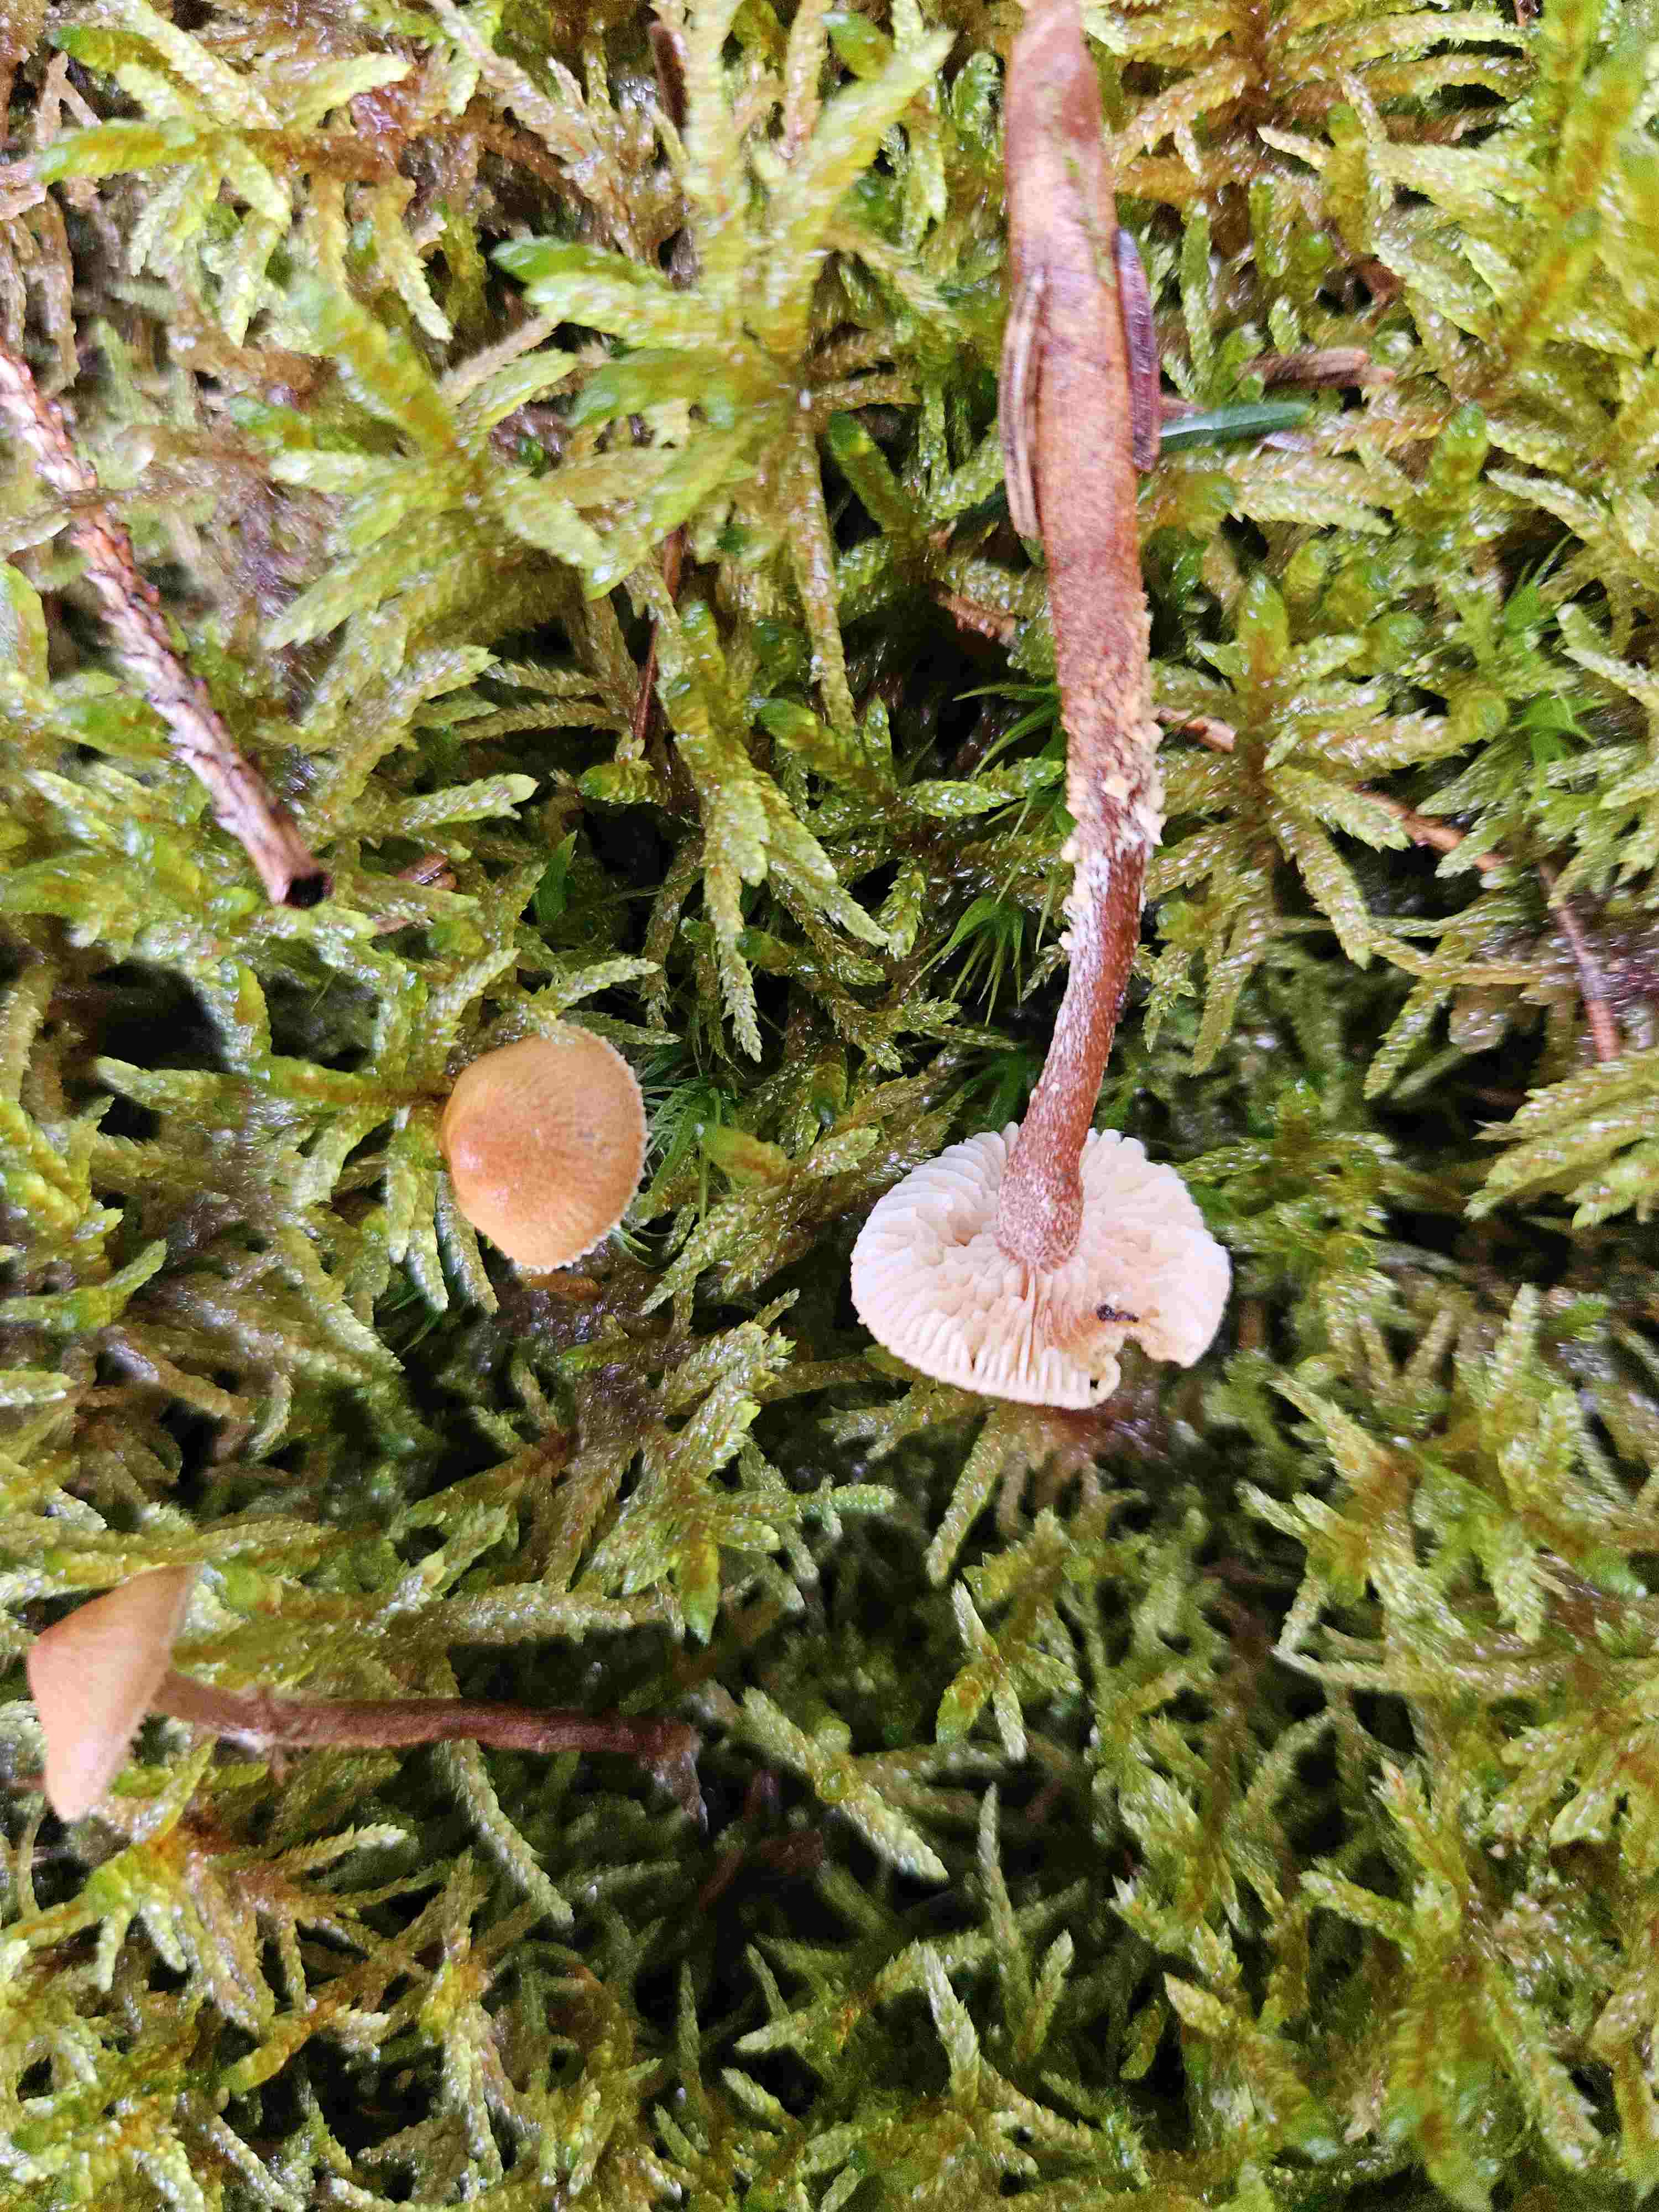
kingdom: Fungi
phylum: Basidiomycota
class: Agaricomycetes
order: Agaricales
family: Tricholomataceae
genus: Cystoderma
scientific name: Cystoderma jasonis
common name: gulkødet grynhat
